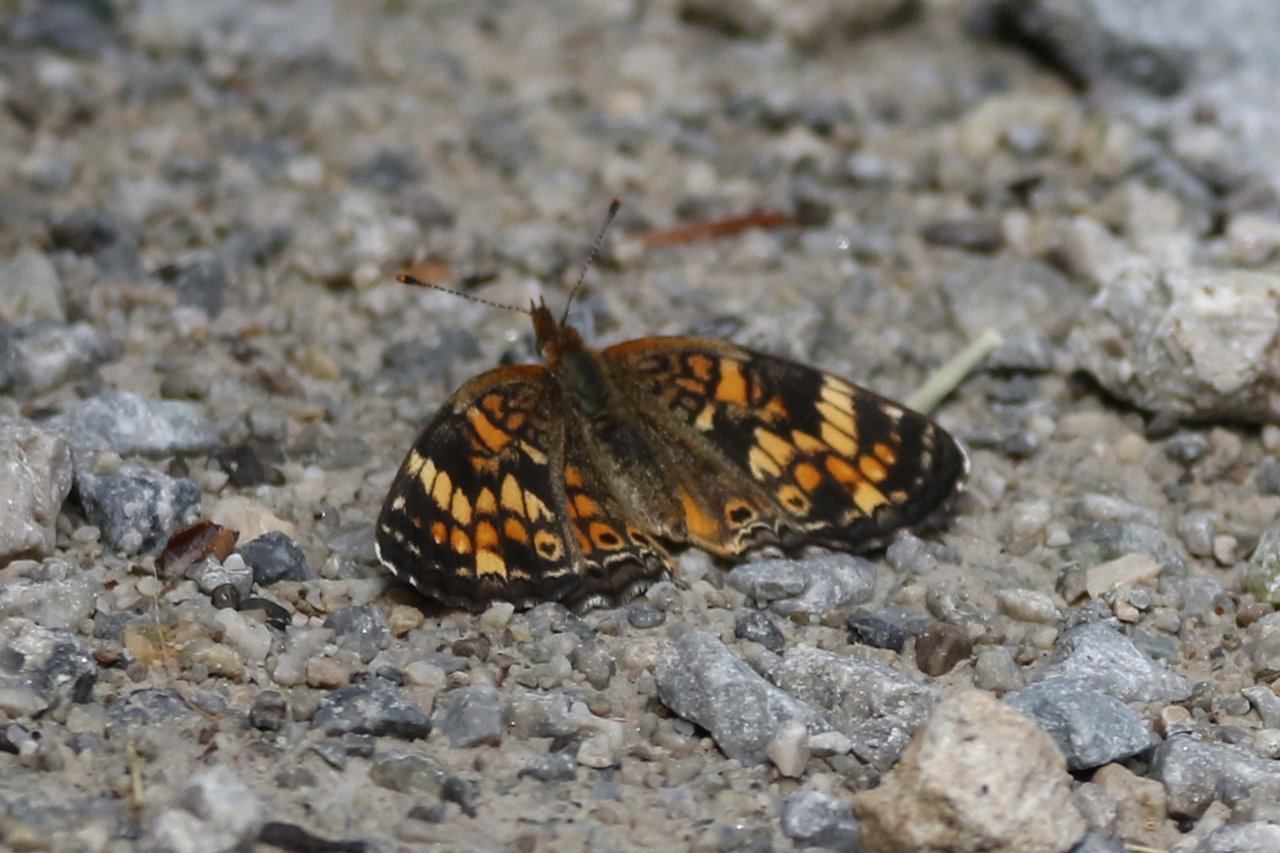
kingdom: Animalia
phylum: Arthropoda
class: Insecta
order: Lepidoptera
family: Nymphalidae
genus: Phyciodes
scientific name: Phyciodes
